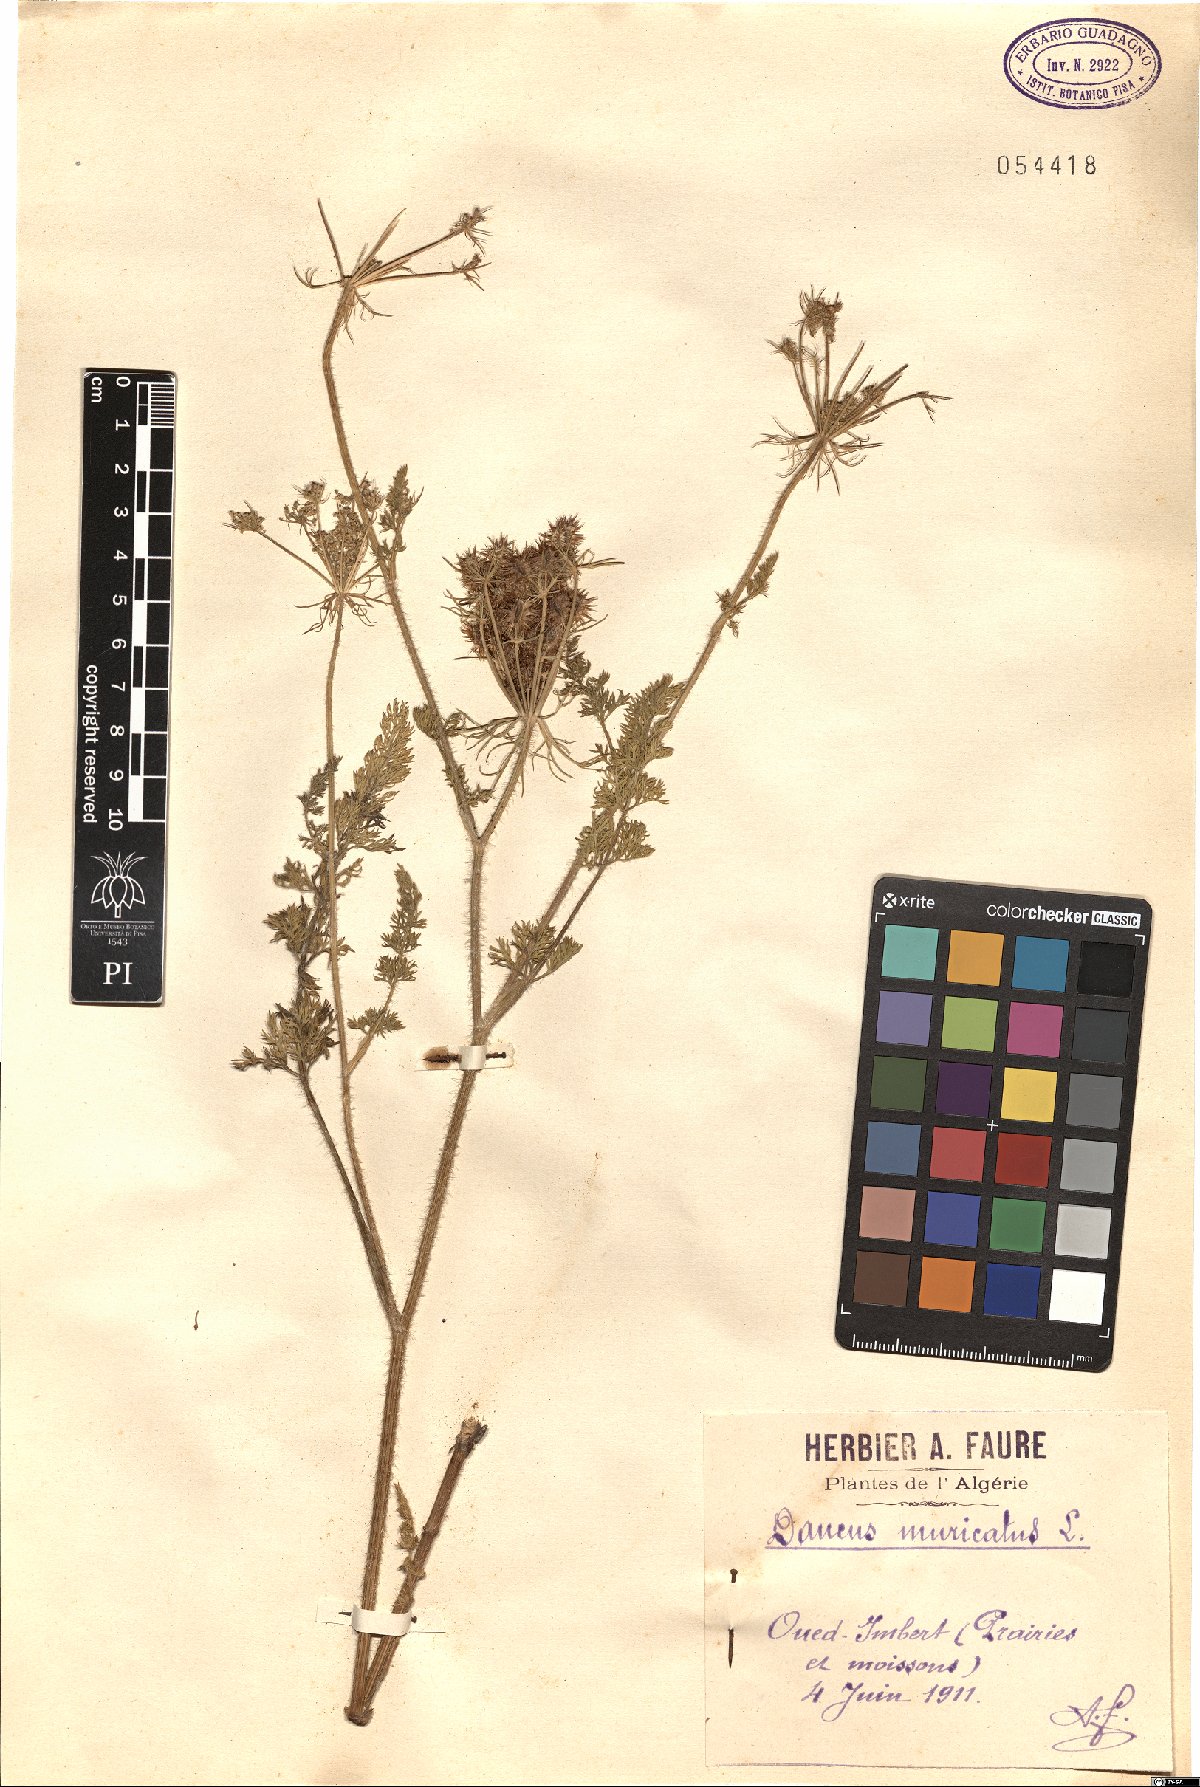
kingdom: Plantae
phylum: Tracheophyta
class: Magnoliopsida
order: Apiales
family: Apiaceae
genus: Daucus
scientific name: Daucus muricatus
